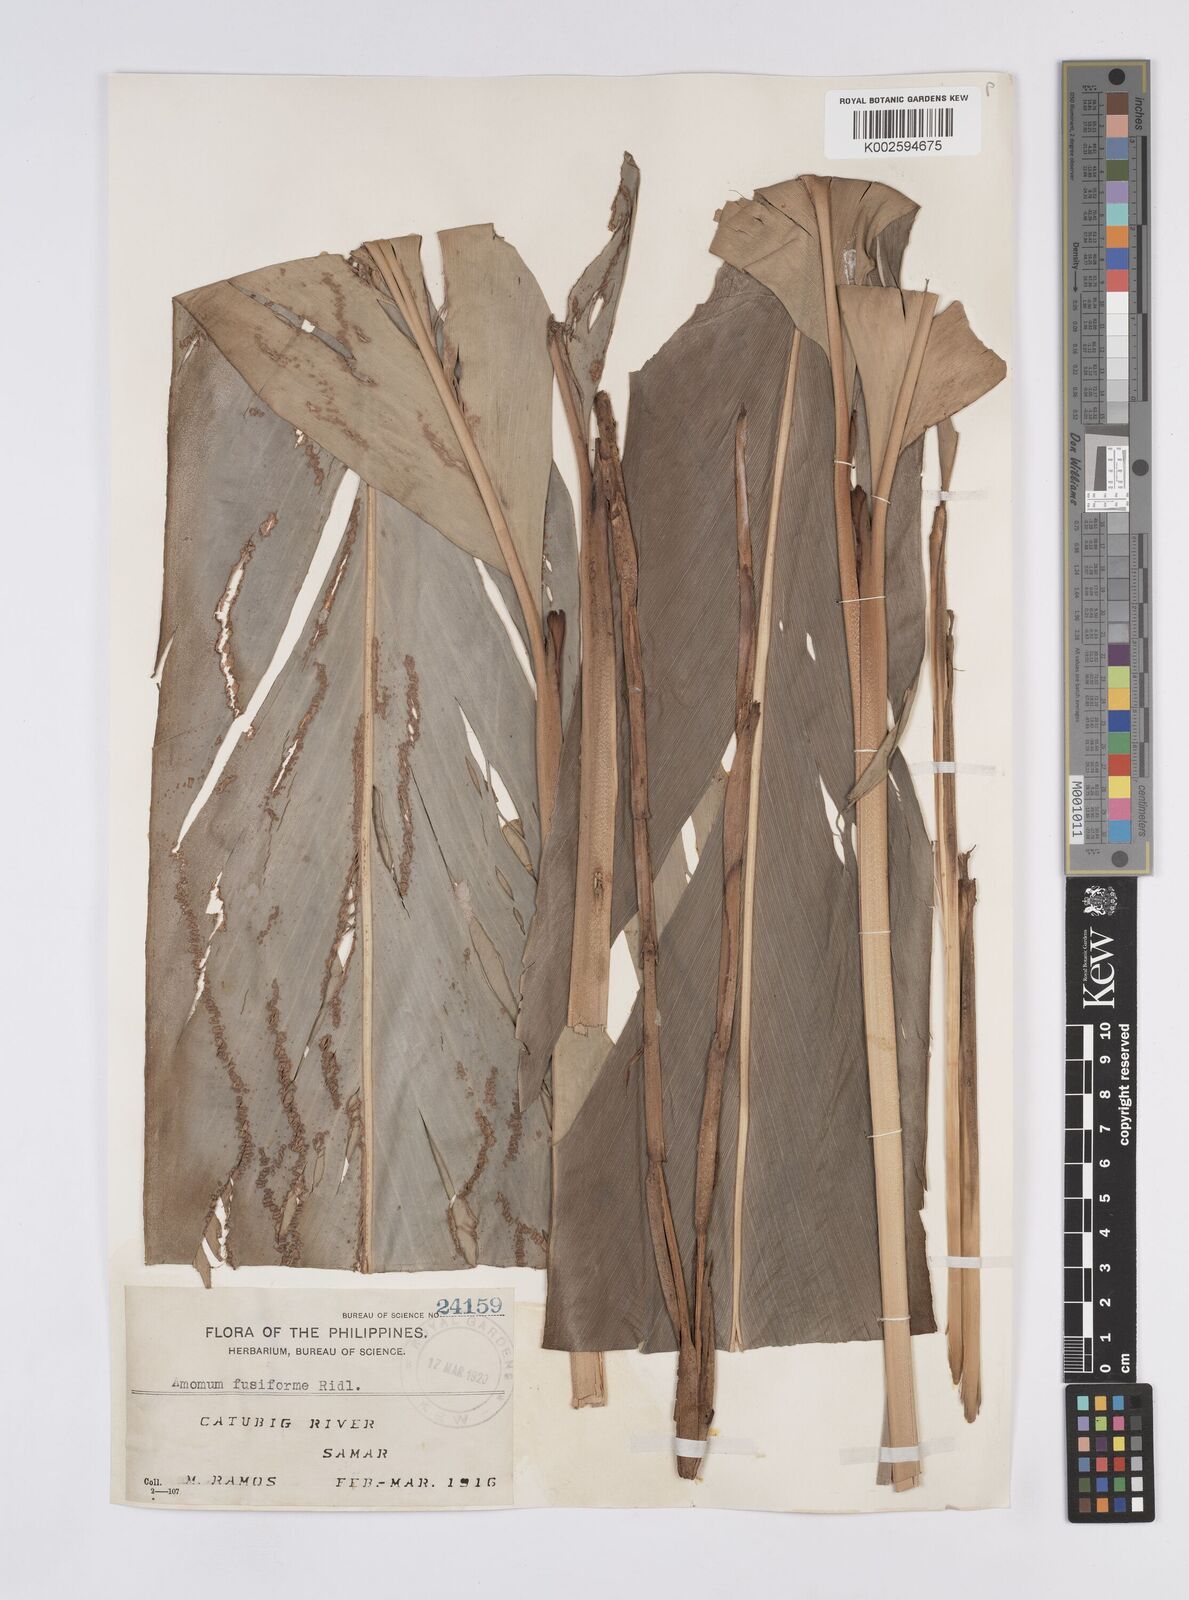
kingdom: Plantae
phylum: Tracheophyta
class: Liliopsida
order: Zingiberales
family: Zingiberaceae
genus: Geocharis
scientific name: Geocharis fusiformis
